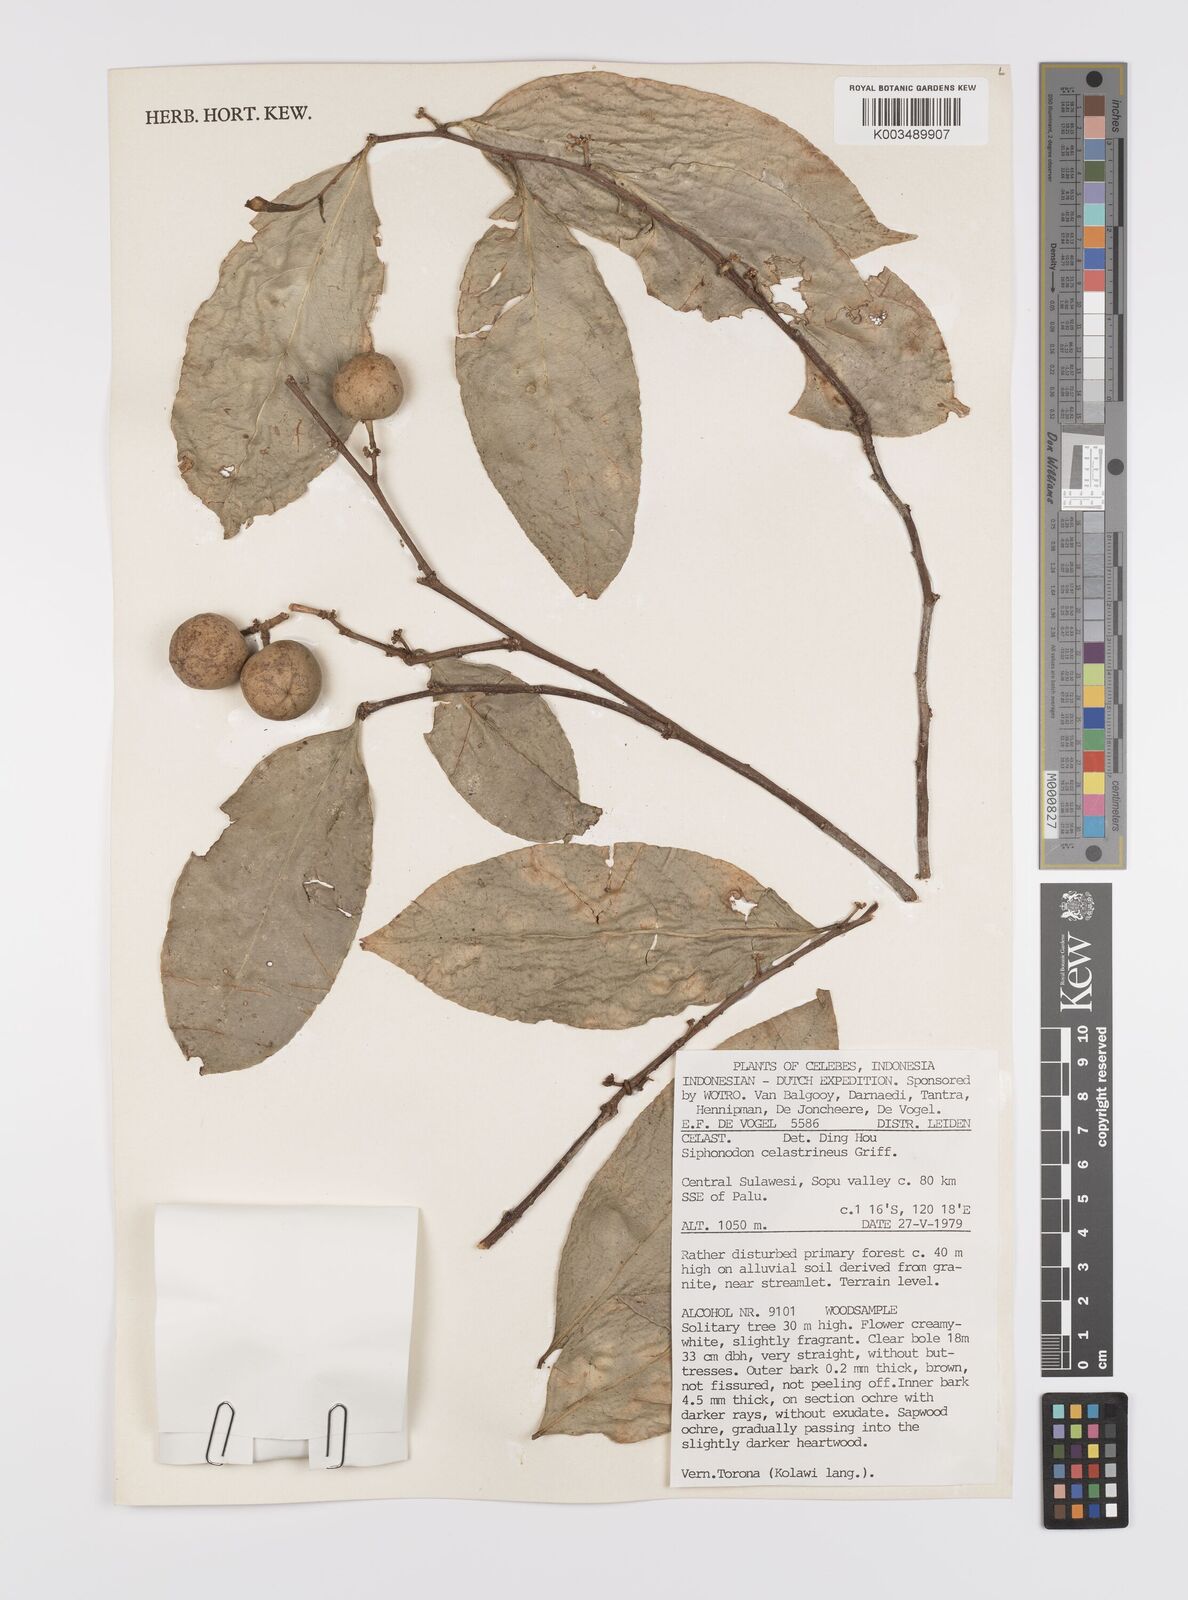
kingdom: Plantae
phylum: Tracheophyta
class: Magnoliopsida
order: Celastrales
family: Celastraceae
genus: Siphonodon
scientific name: Siphonodon celastrineus
